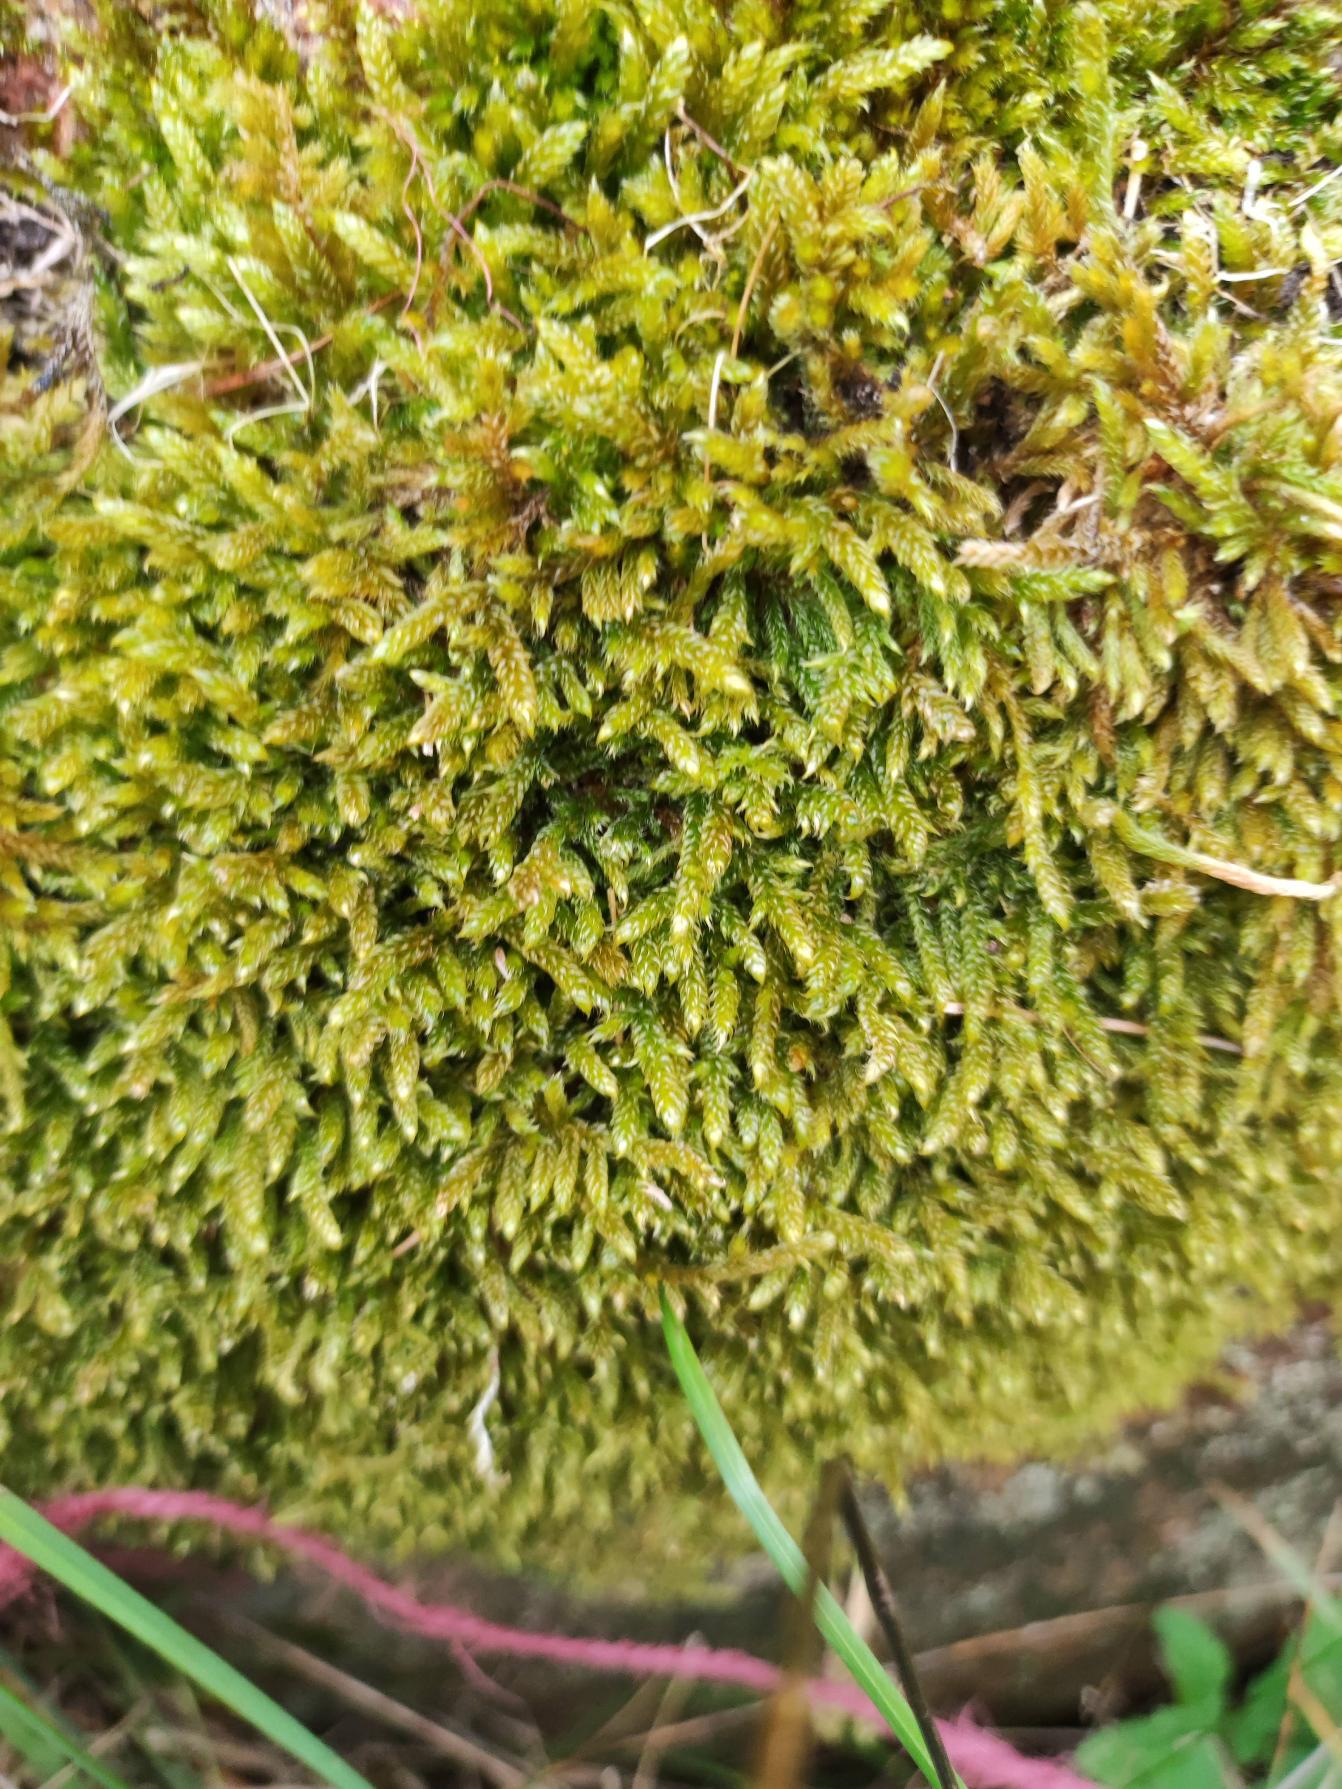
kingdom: Plantae
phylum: Bryophyta
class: Bryopsida
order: Hypnales
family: Hypnaceae
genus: Hypnum
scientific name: Hypnum cupressiforme
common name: Almindelig cypresmos
